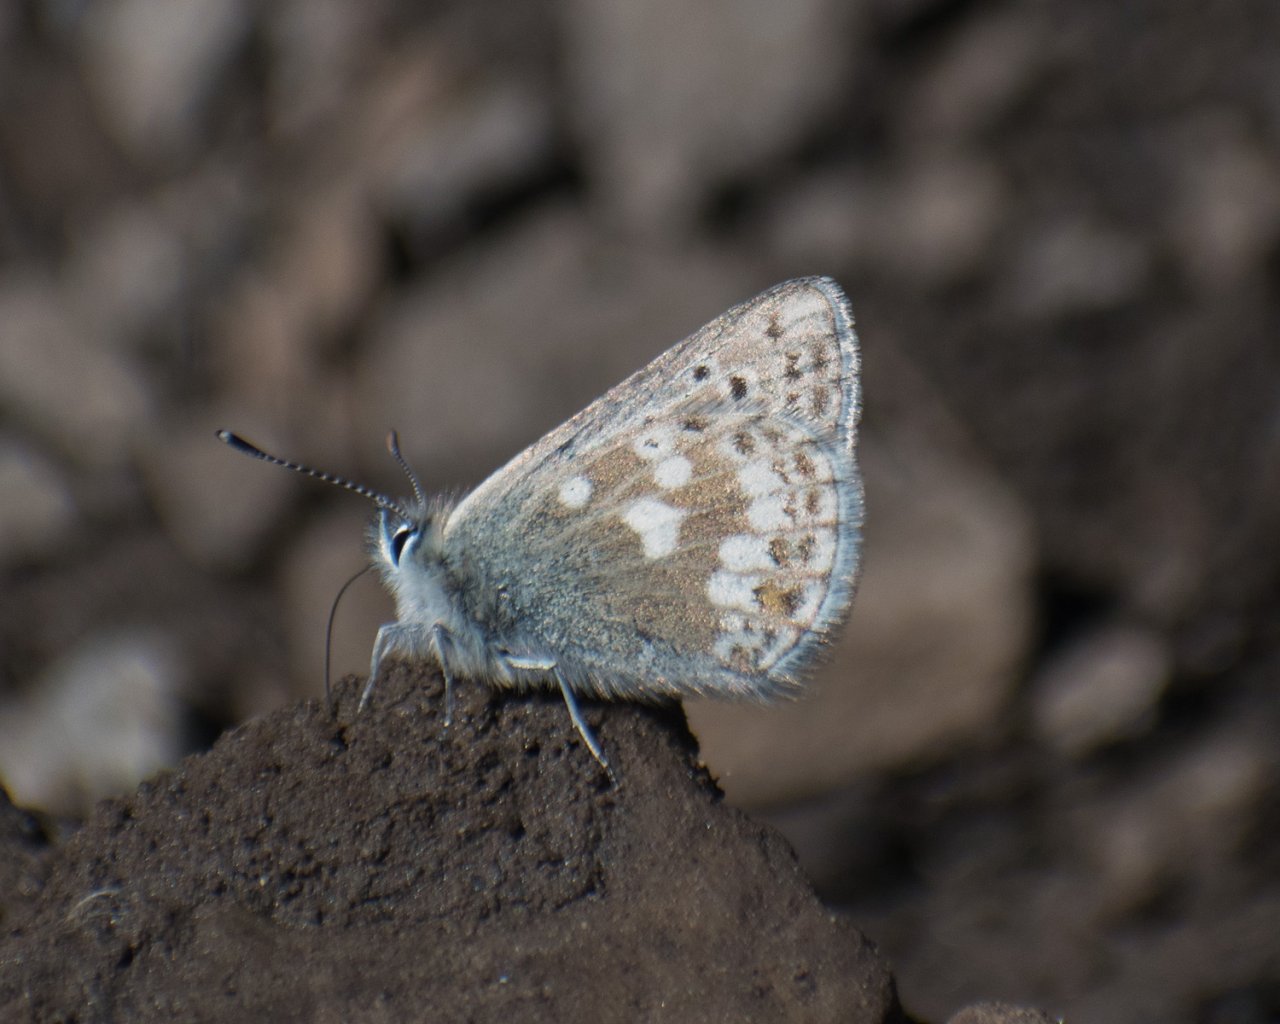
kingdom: Animalia
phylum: Arthropoda
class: Insecta
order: Lepidoptera
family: Lycaenidae
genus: Agriades
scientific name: Agriades glandon
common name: Arctic Blue
